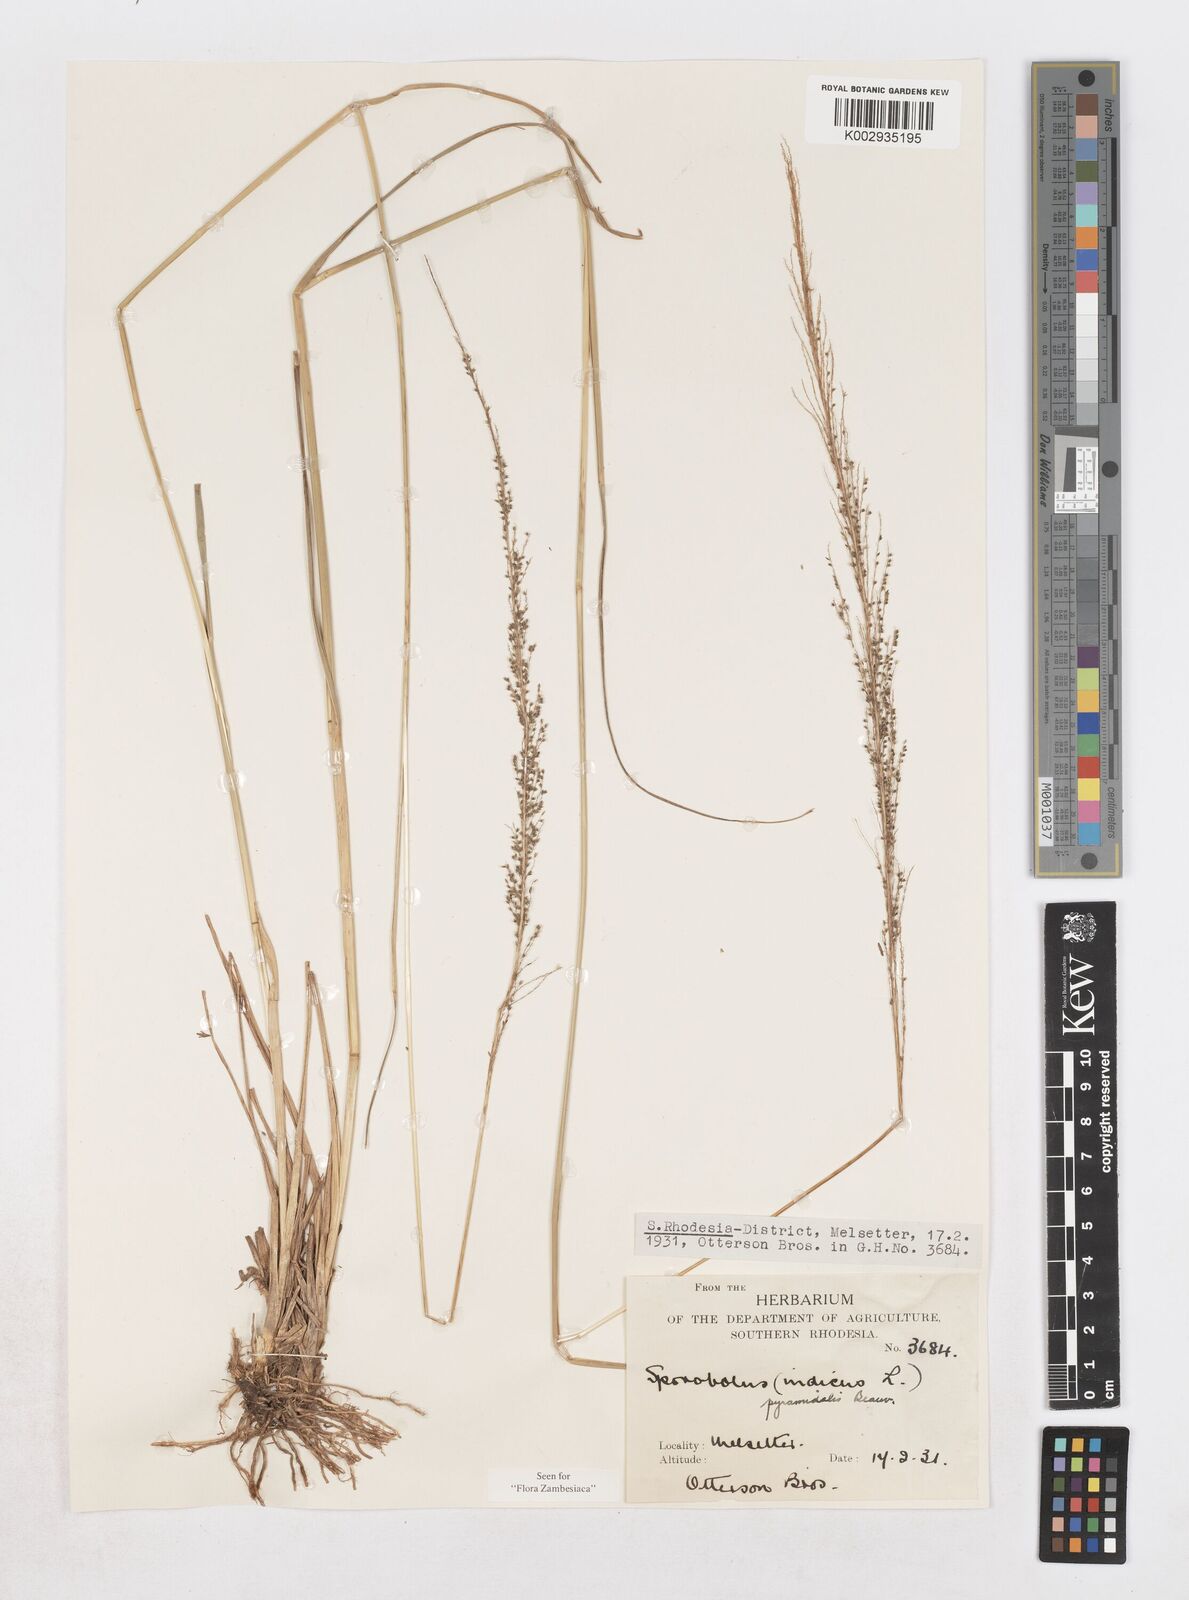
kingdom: Plantae
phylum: Tracheophyta
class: Liliopsida
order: Poales
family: Poaceae
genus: Sporobolus
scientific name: Sporobolus pyramidalis
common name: West indian dropseed
